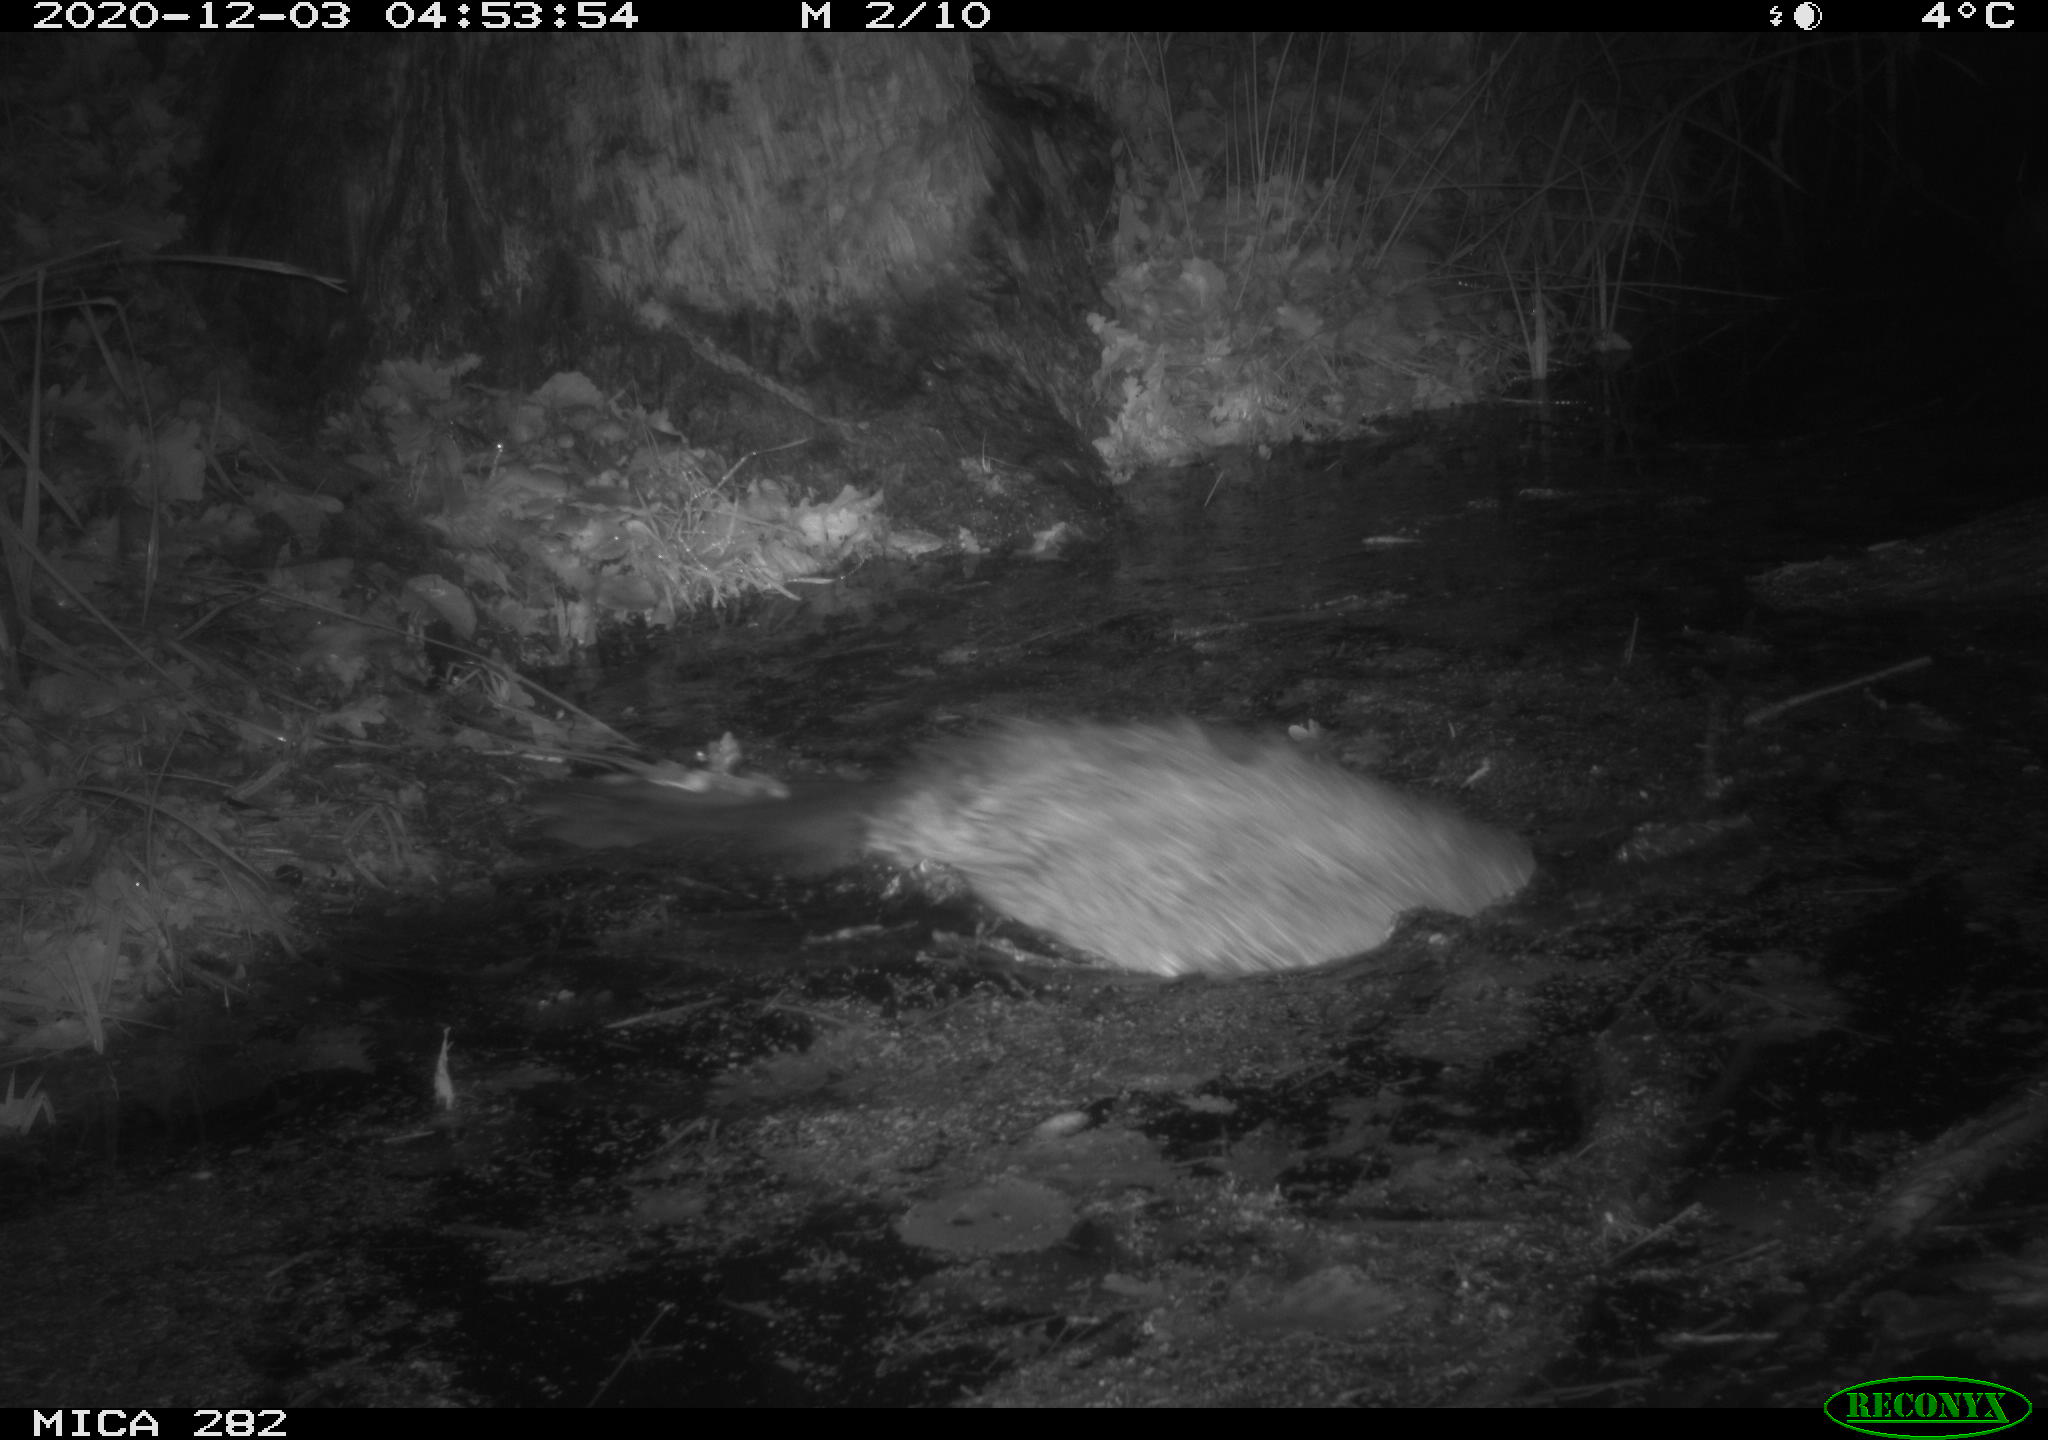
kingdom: Animalia
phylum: Chordata
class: Mammalia
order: Rodentia
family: Castoridae
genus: Castor
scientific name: Castor fiber
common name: Eurasian beaver
